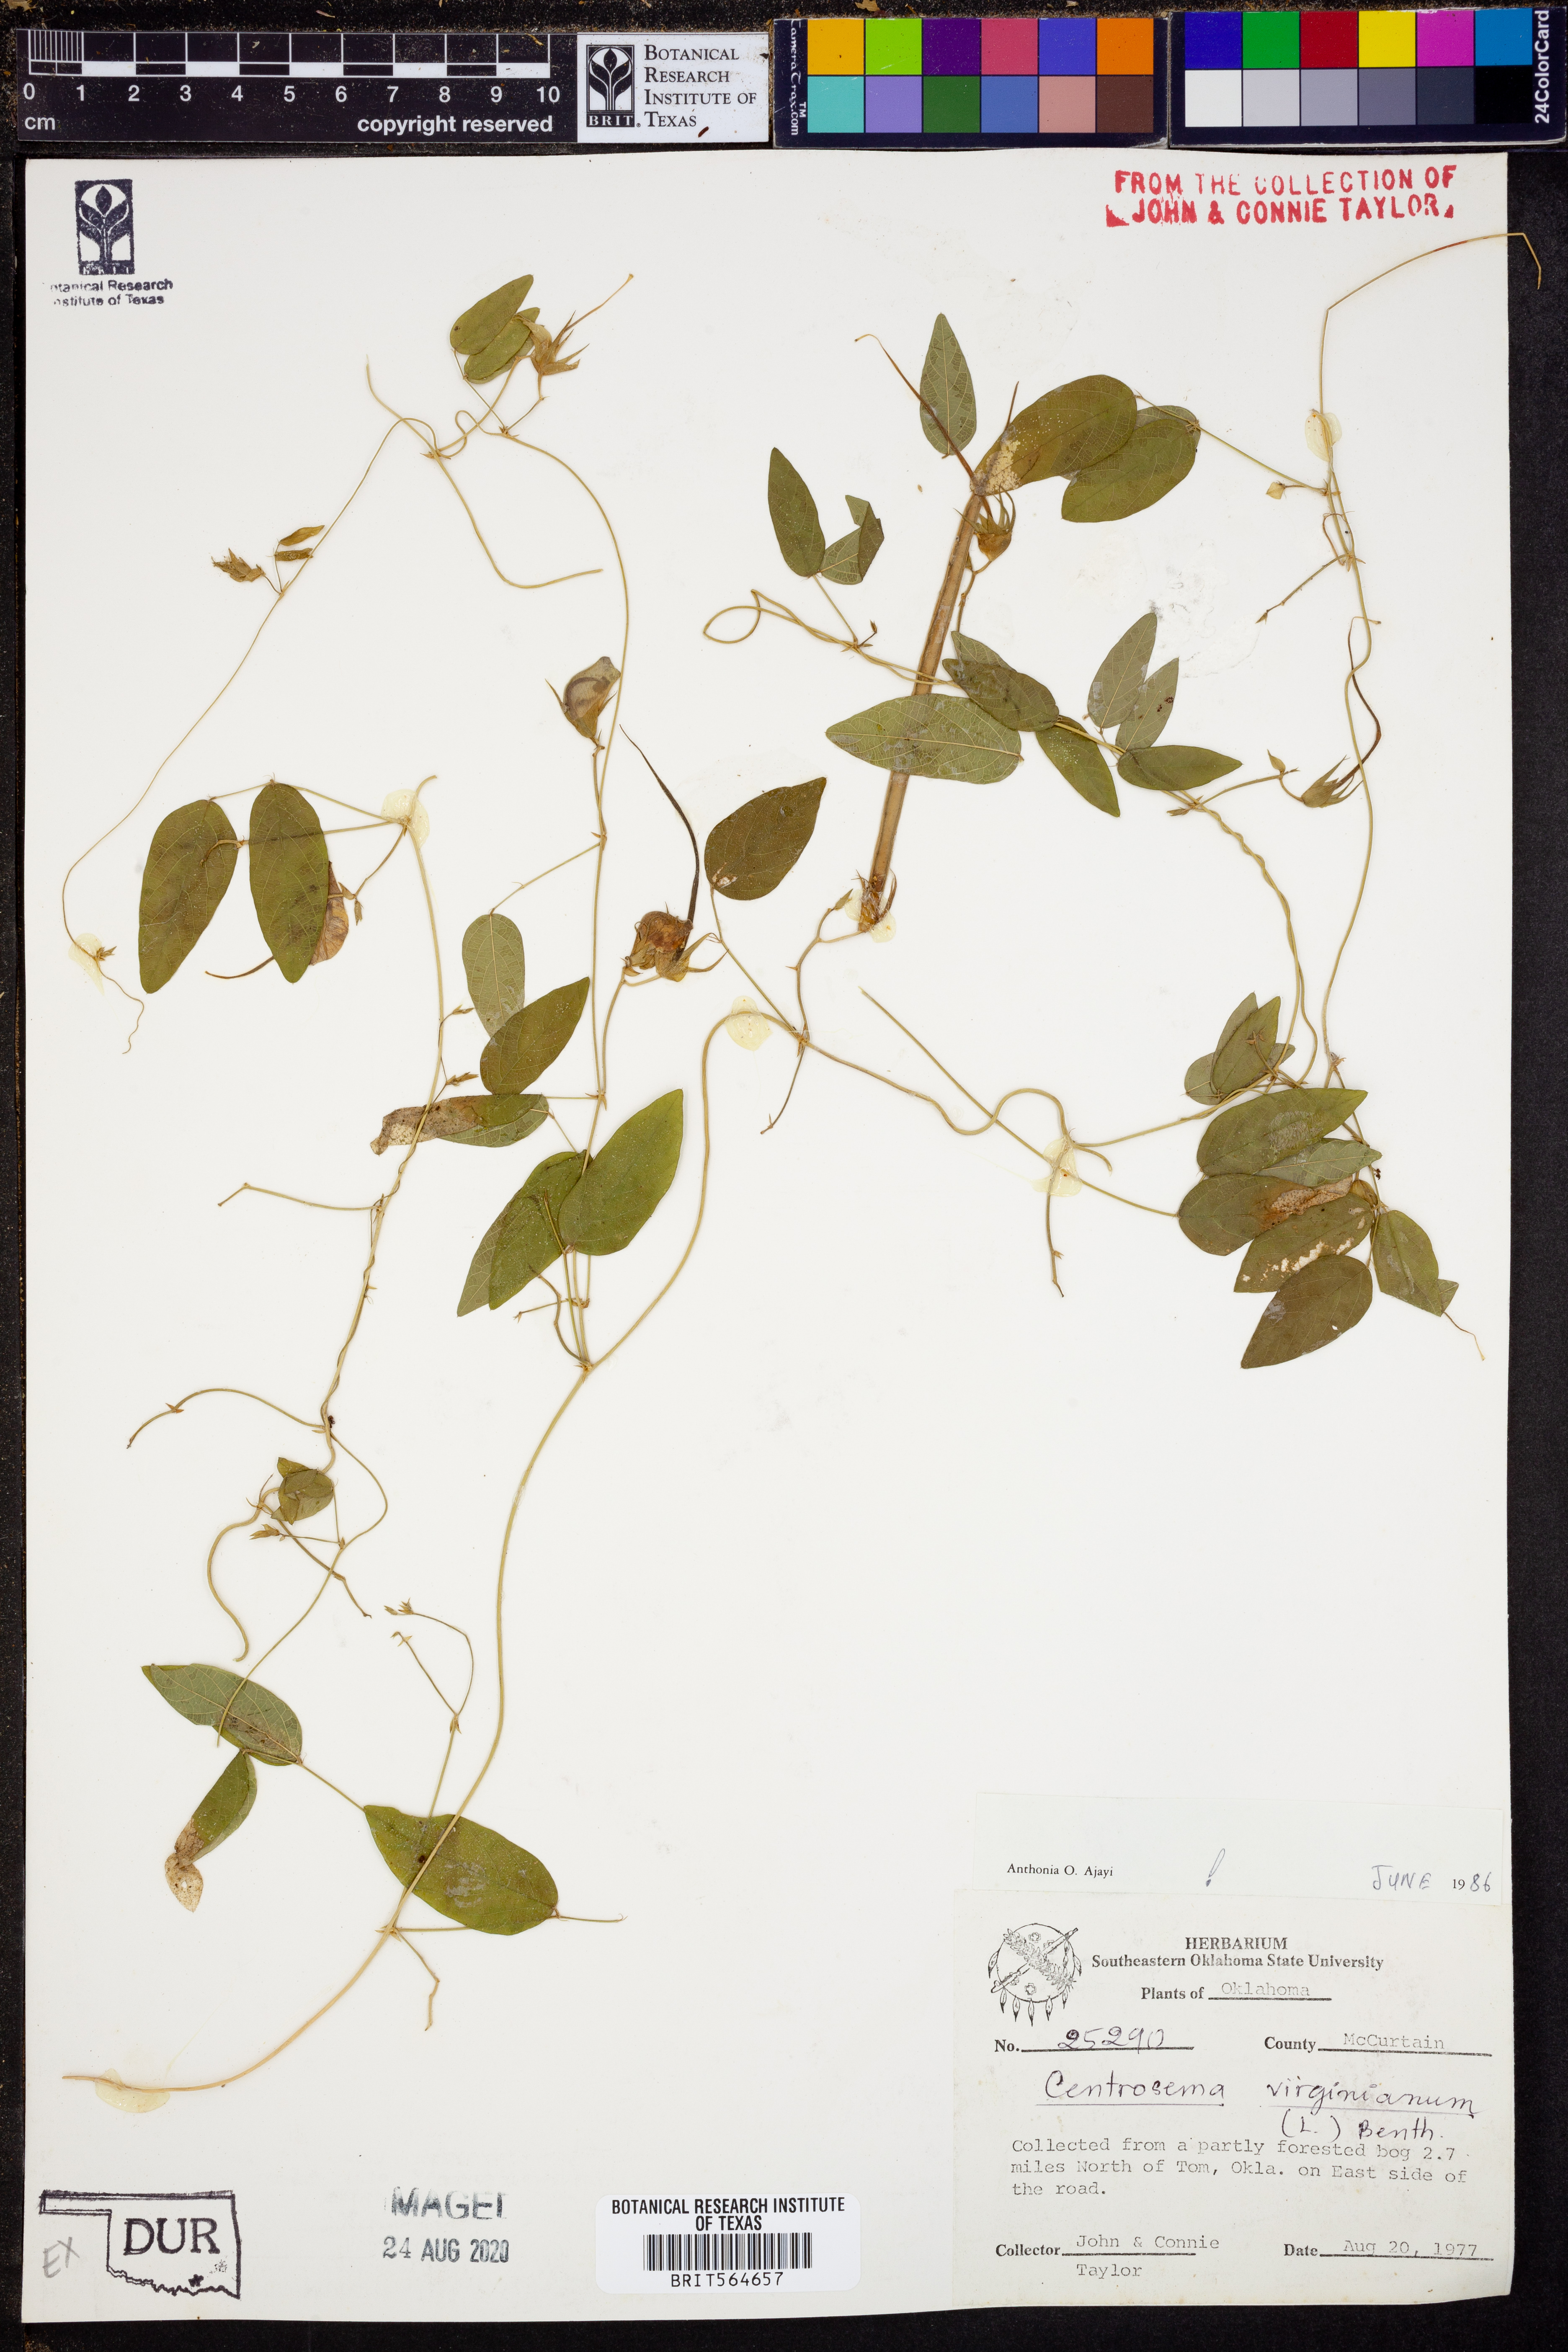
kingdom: Plantae
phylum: Tracheophyta
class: Magnoliopsida
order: Fabales
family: Fabaceae
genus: Centrosema
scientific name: Centrosema virginianum
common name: Butterfly-pea
